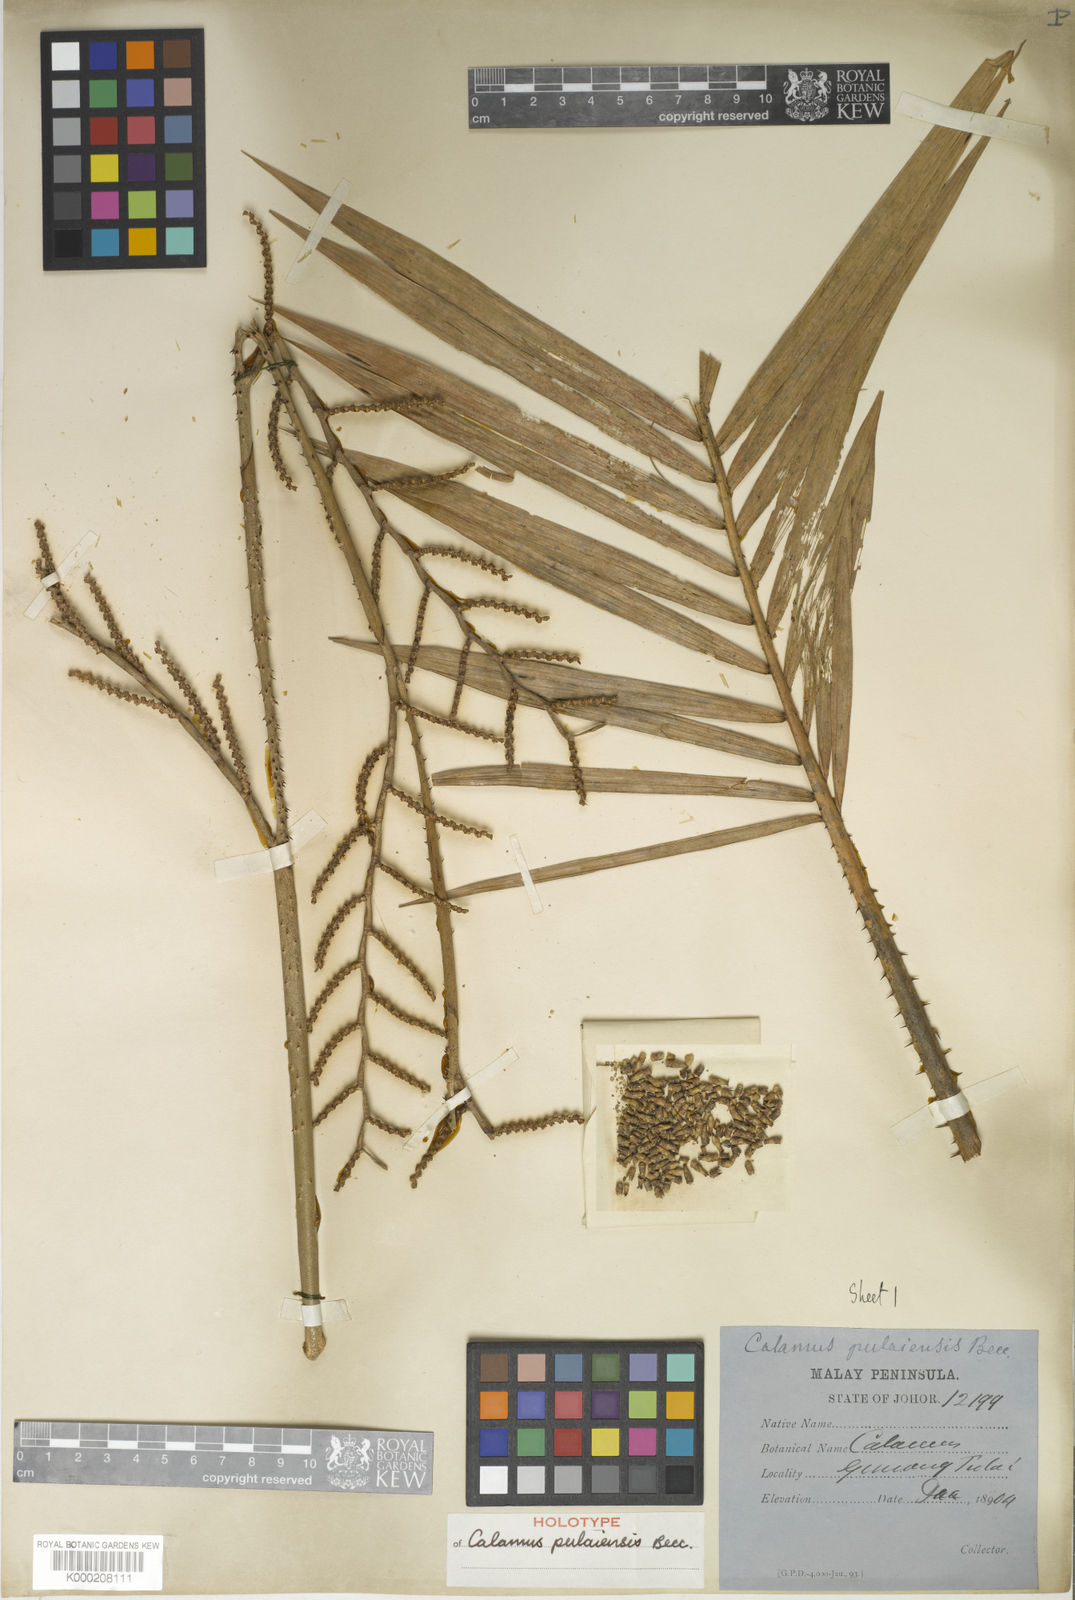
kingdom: Plantae
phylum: Tracheophyta
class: Liliopsida
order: Arecales
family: Arecaceae
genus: Calamus
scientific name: Calamus exilis
